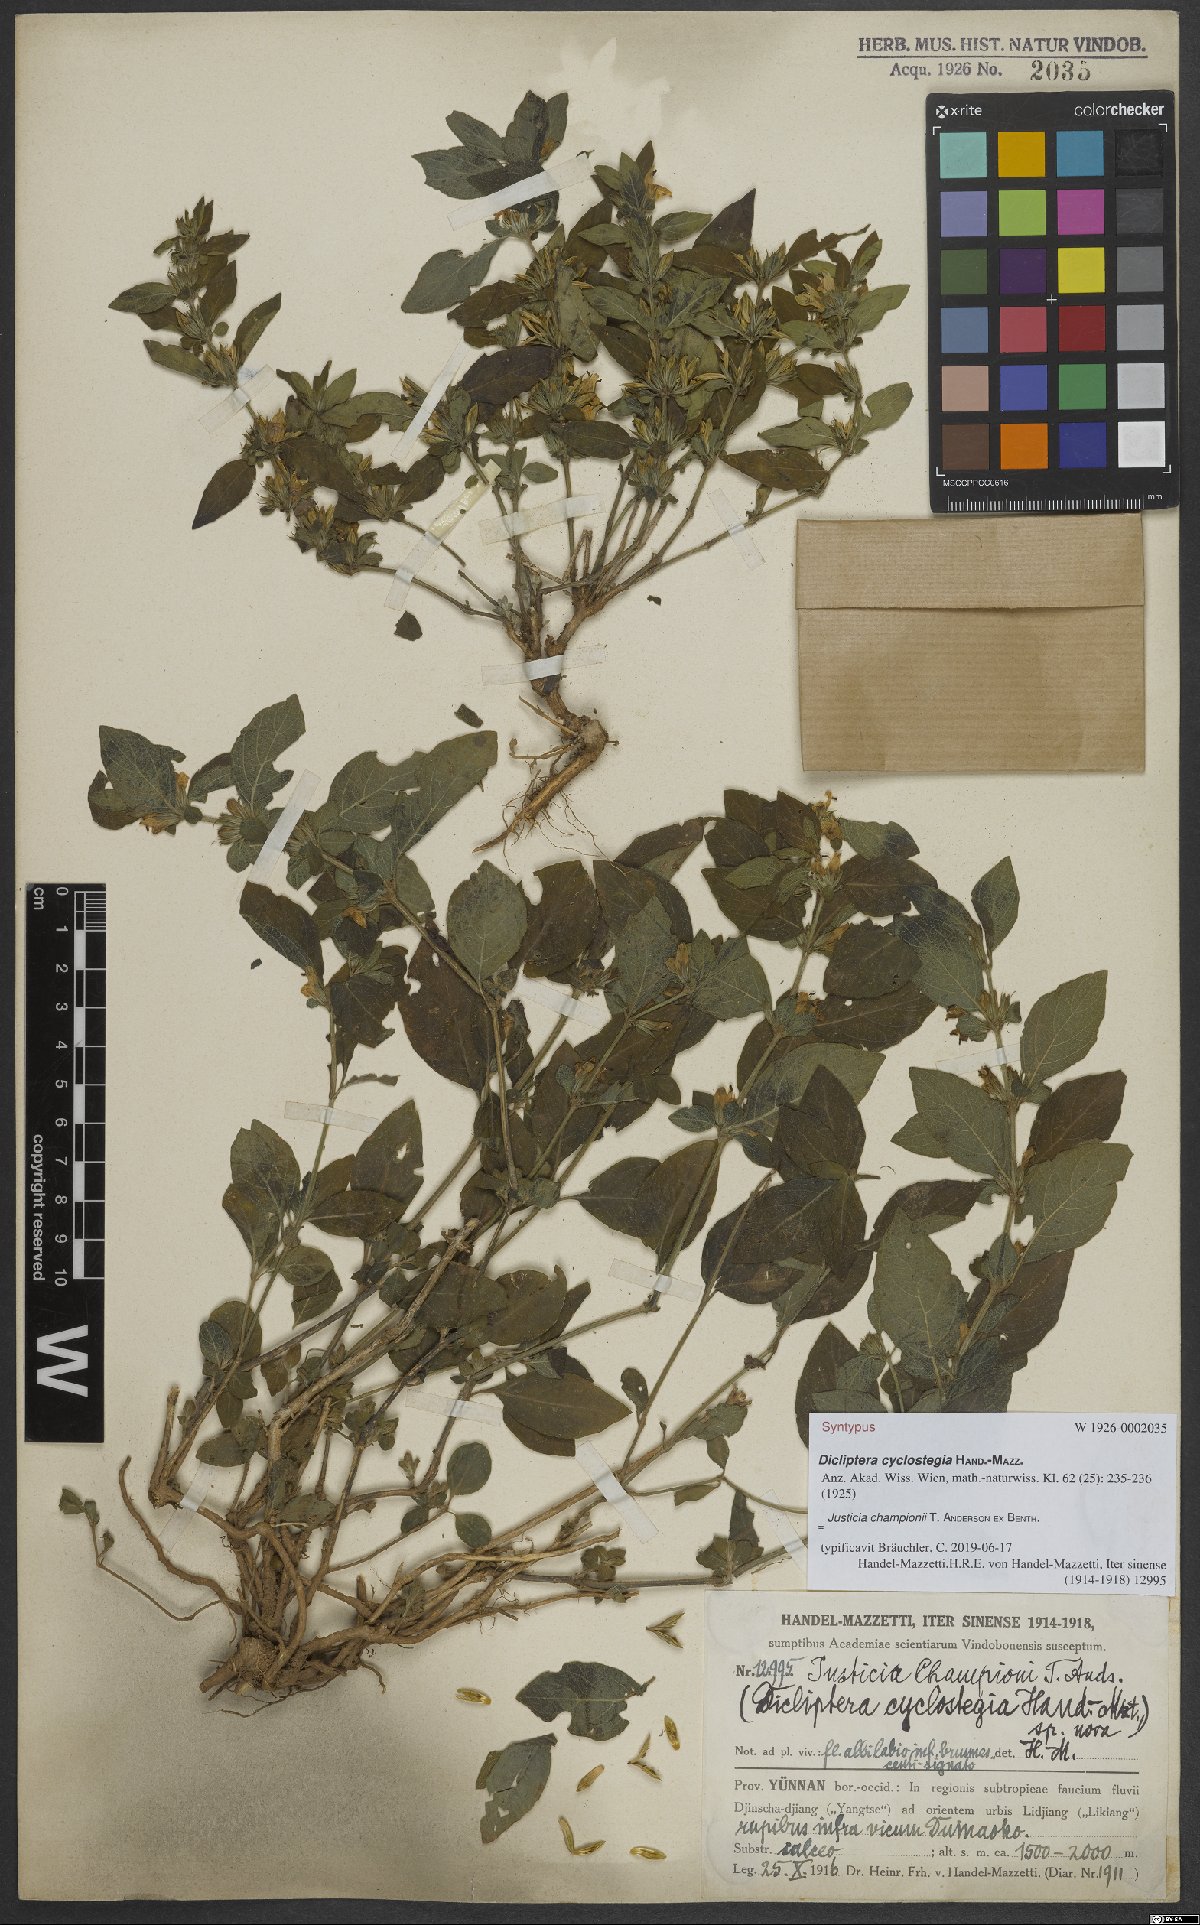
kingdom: Plantae
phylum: Tracheophyta
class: Magnoliopsida
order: Lamiales
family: Acanthaceae
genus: Justicia
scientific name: Justicia championii
